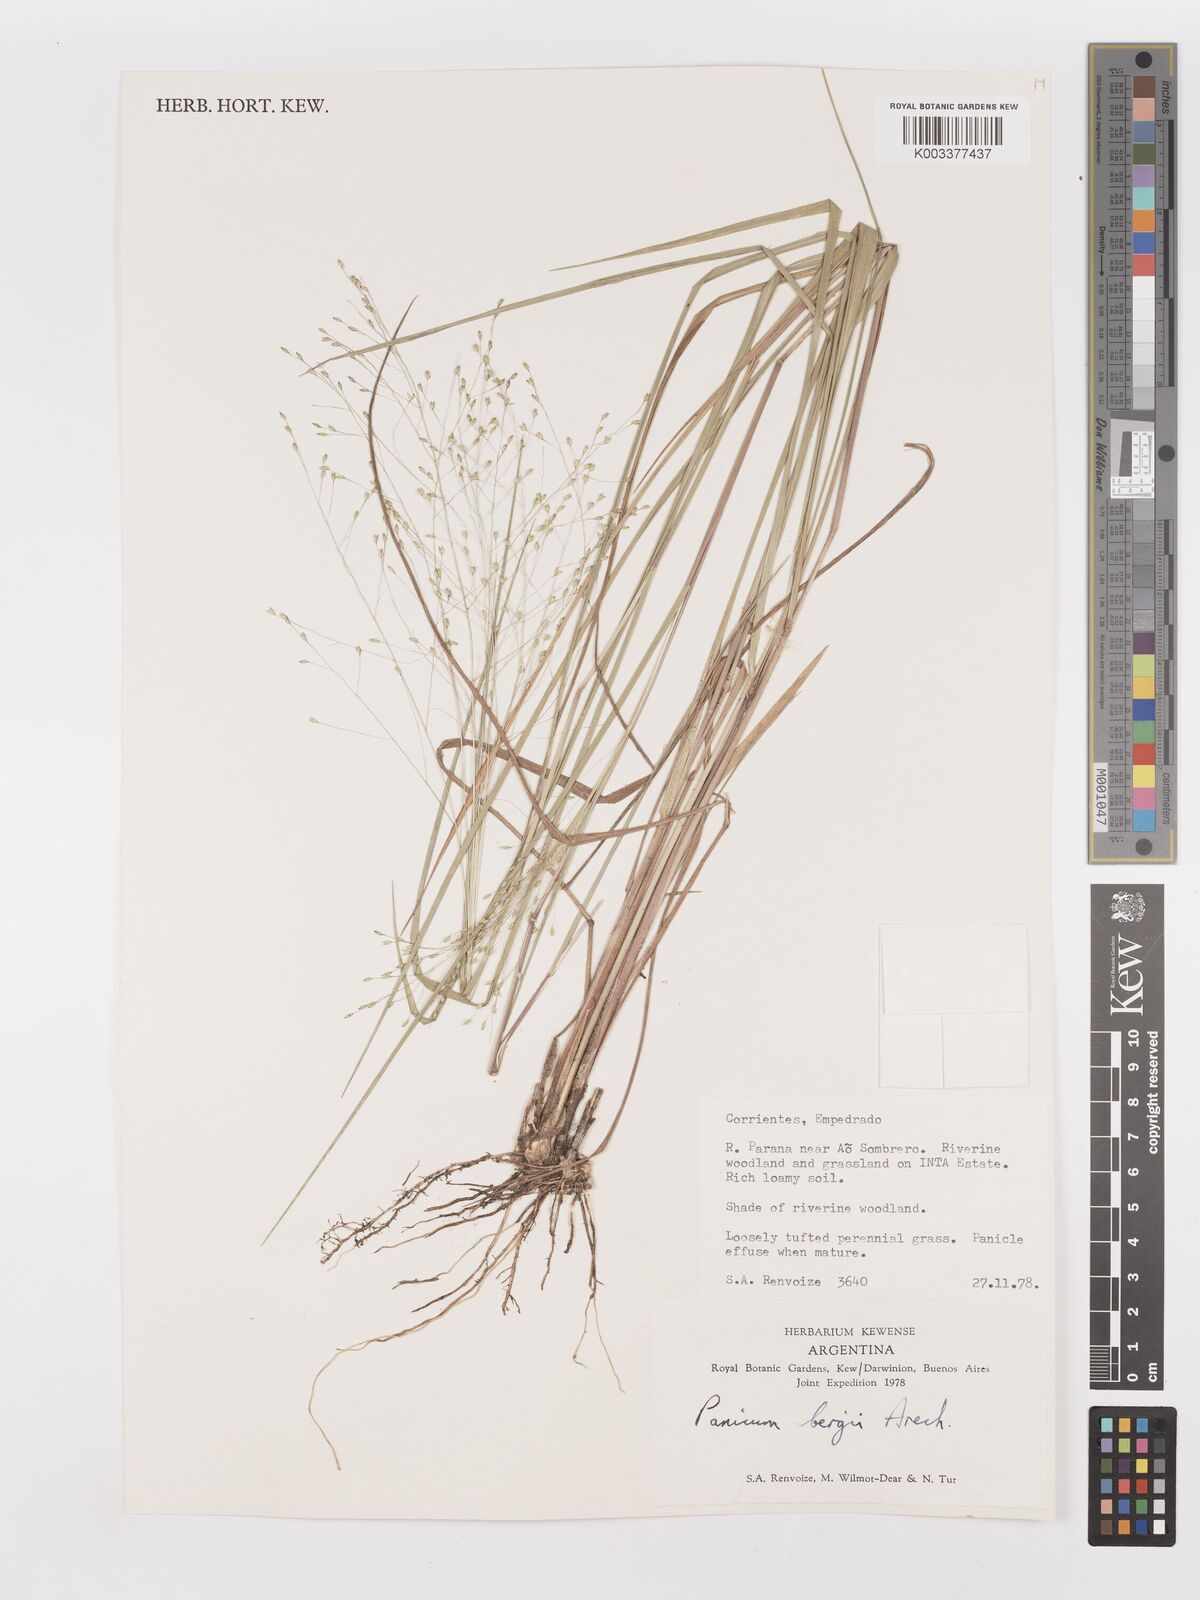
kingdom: Plantae
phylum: Tracheophyta
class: Liliopsida
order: Poales
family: Poaceae
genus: Panicum
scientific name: Panicum bergii
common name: Berg's panicgrass
